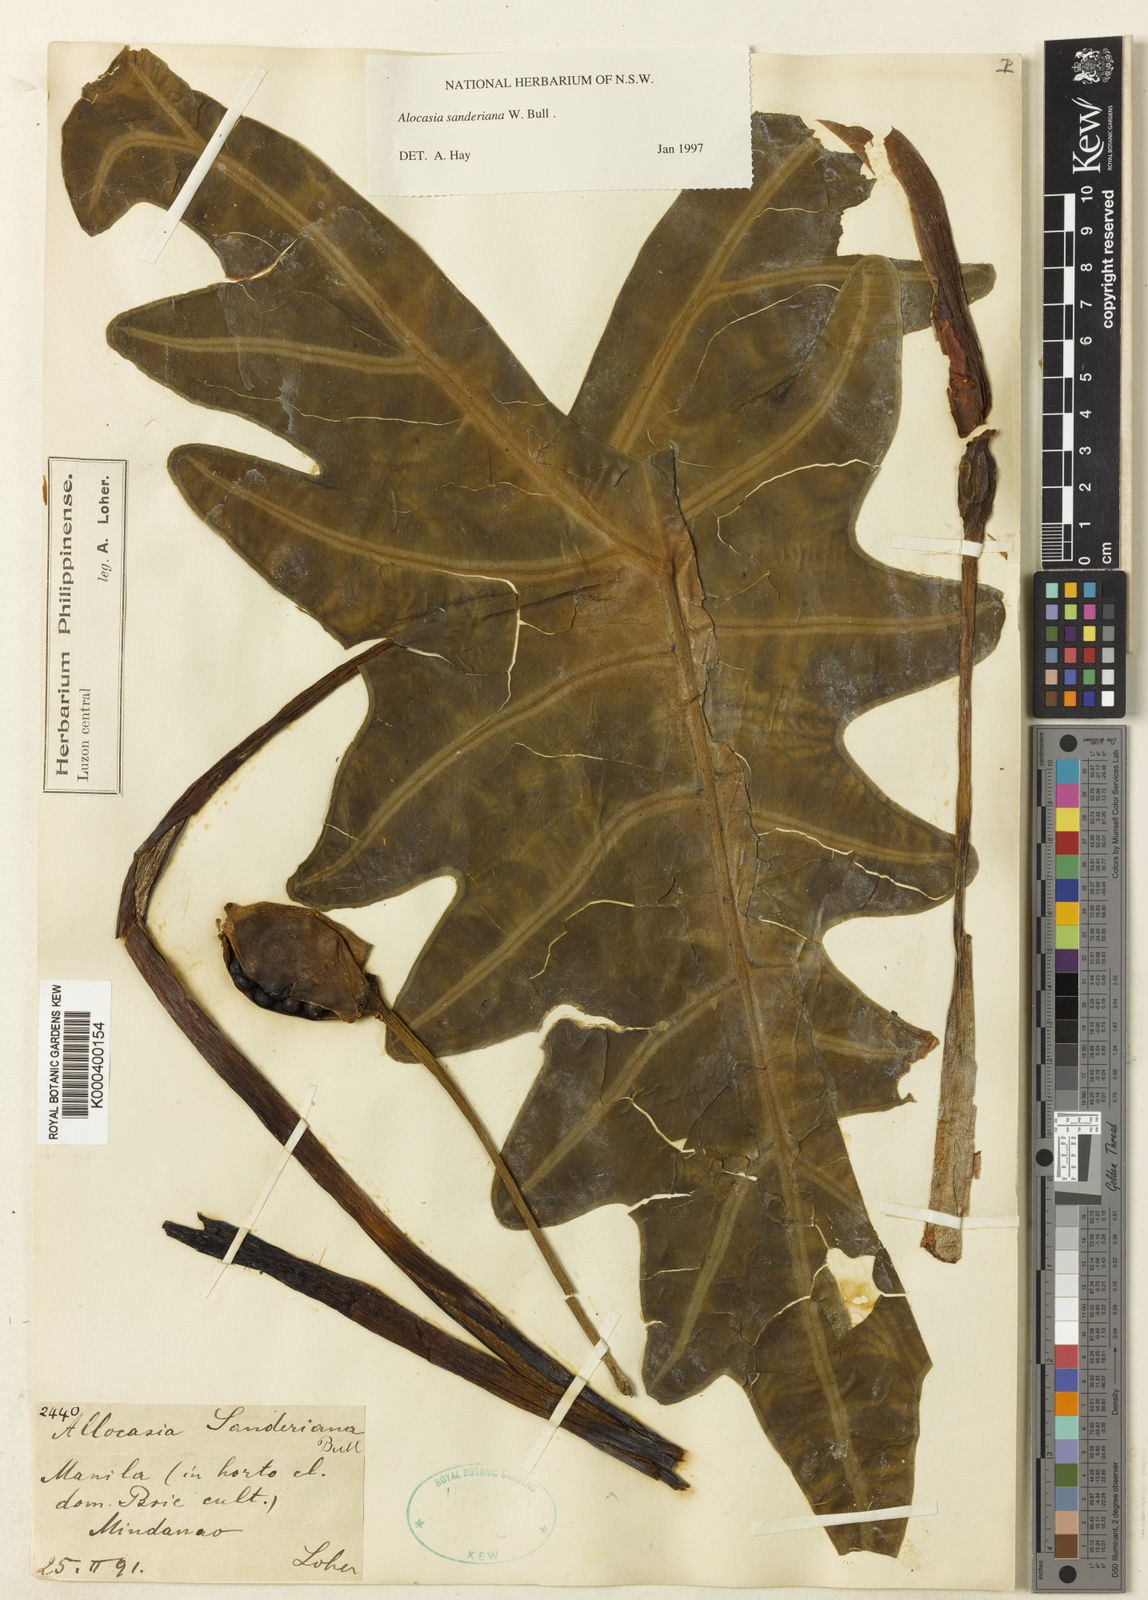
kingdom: Plantae
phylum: Tracheophyta
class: Liliopsida
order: Alismatales
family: Araceae
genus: Alocasia
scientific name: Alocasia sanderiana
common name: Sander's alocasia
